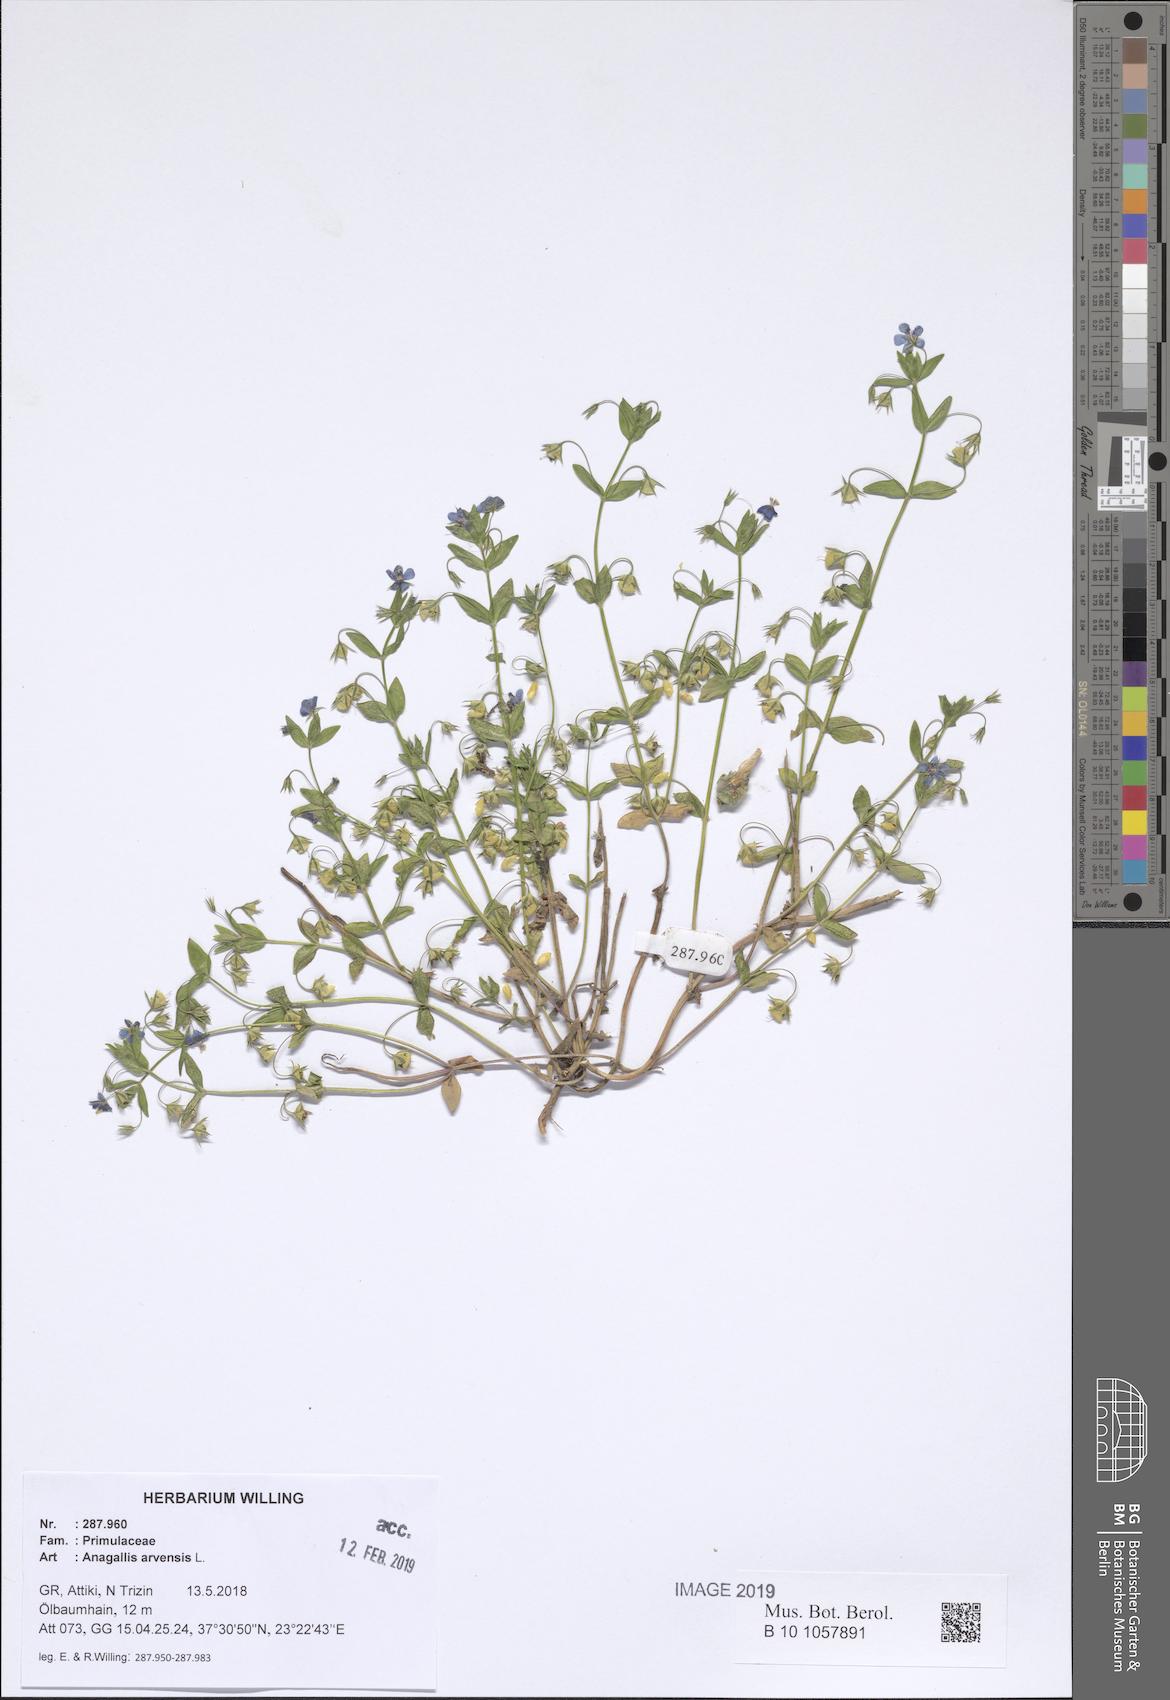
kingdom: Plantae
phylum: Tracheophyta
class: Magnoliopsida
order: Ericales
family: Primulaceae
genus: Lysimachia
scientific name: Lysimachia arvensis
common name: Scarlet pimpernel
